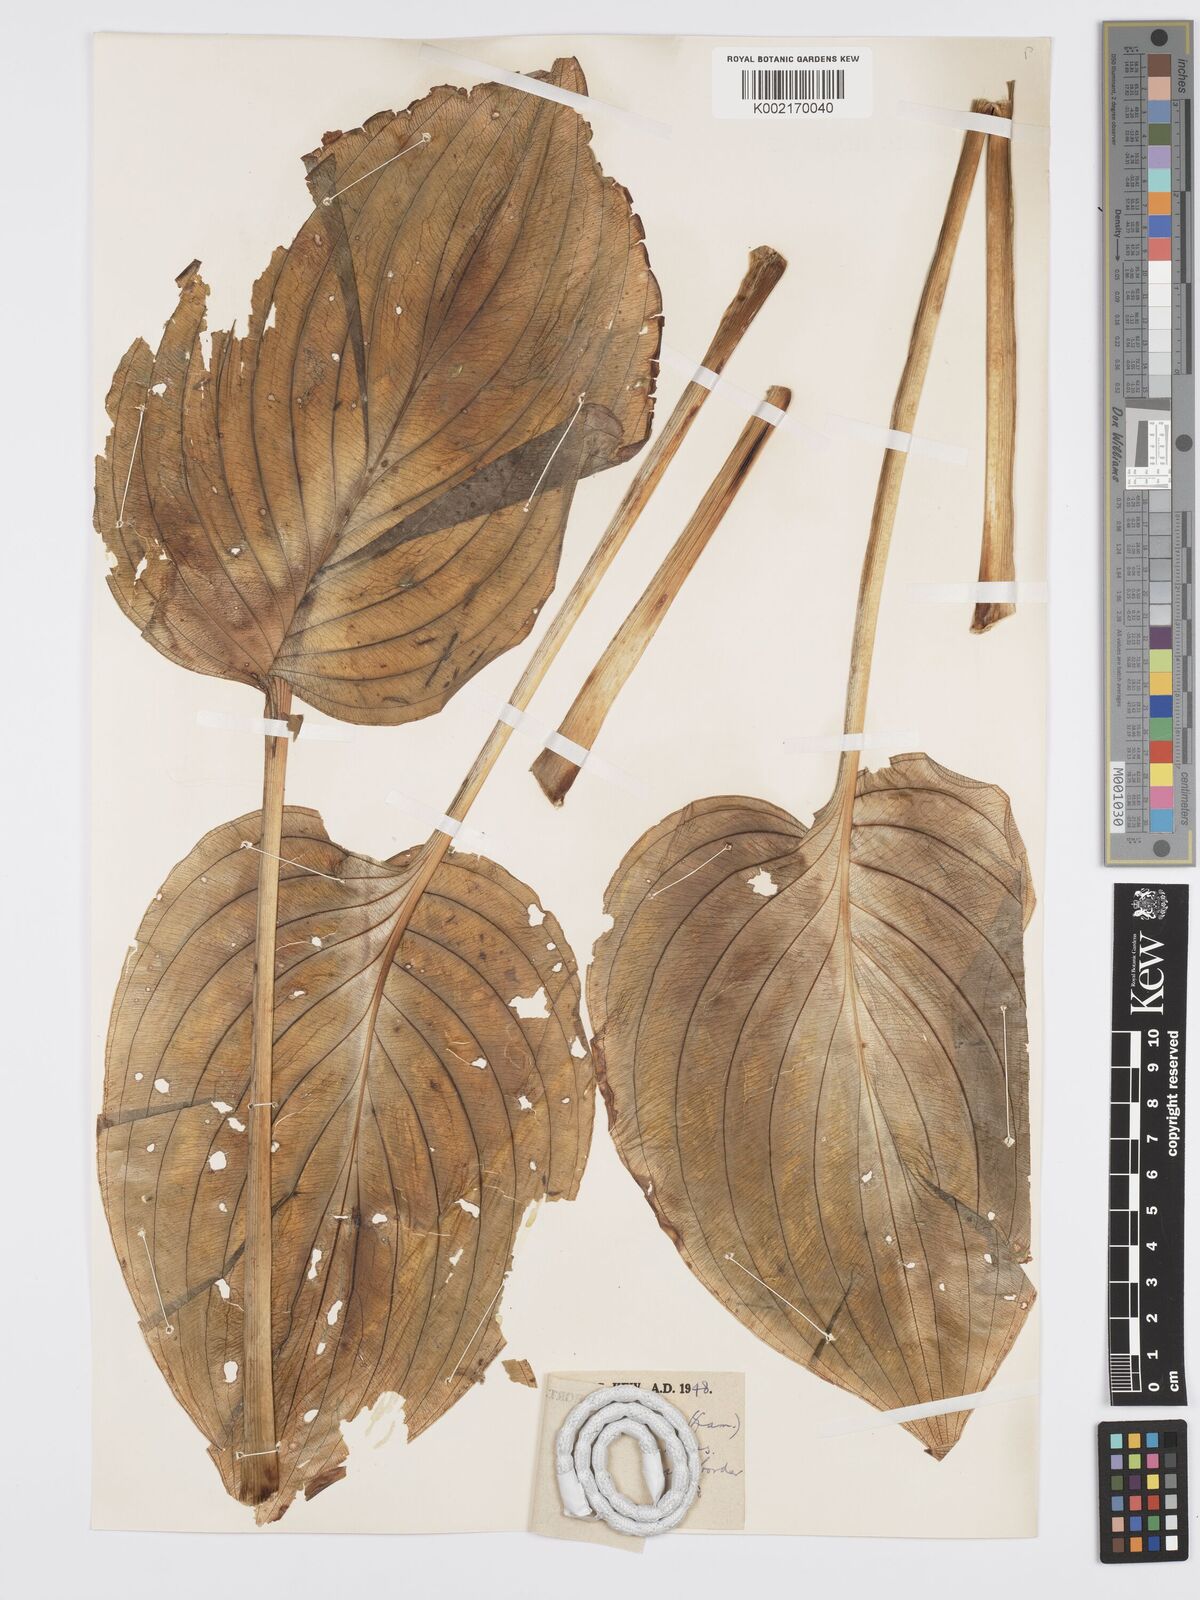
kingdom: Plantae
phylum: Tracheophyta
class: Liliopsida
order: Asparagales
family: Asparagaceae
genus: Hosta
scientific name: Hosta plantaginea
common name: August-lily
